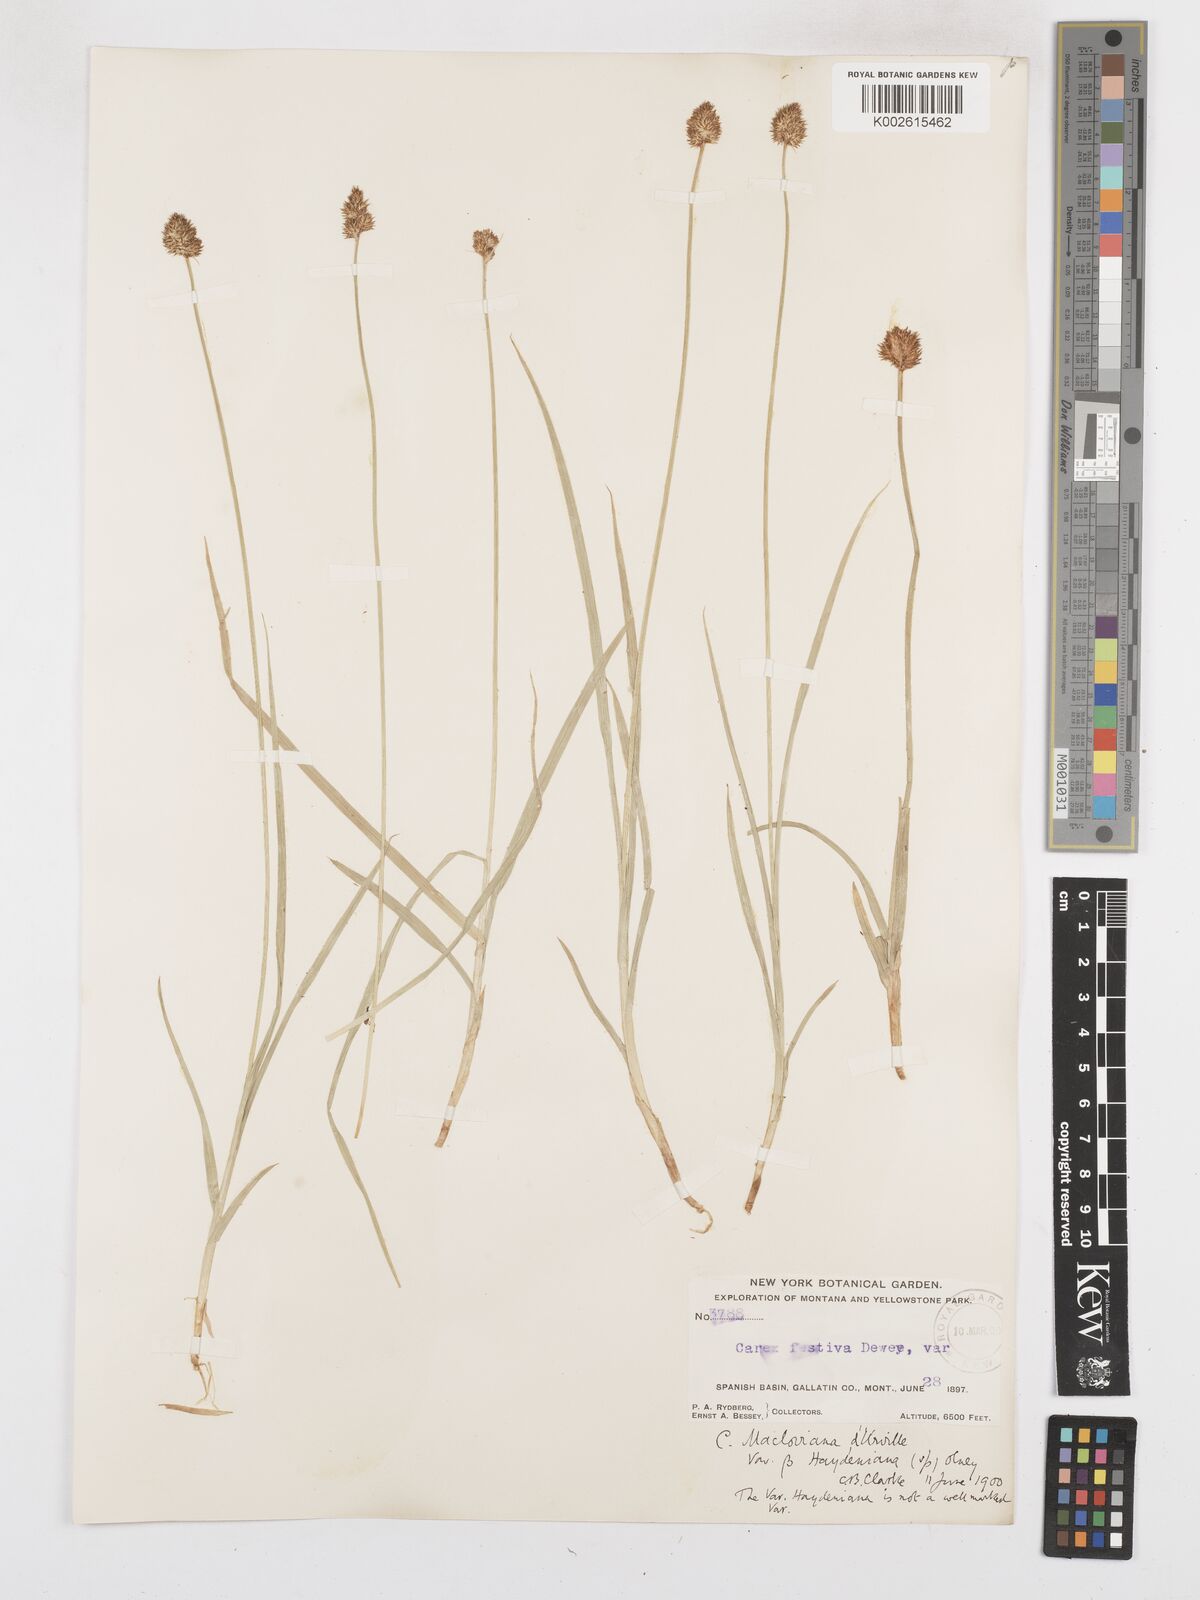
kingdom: Plantae
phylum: Tracheophyta
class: Liliopsida
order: Poales
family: Cyperaceae
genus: Carex
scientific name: Carex haydeniana
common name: Cloud sedge
